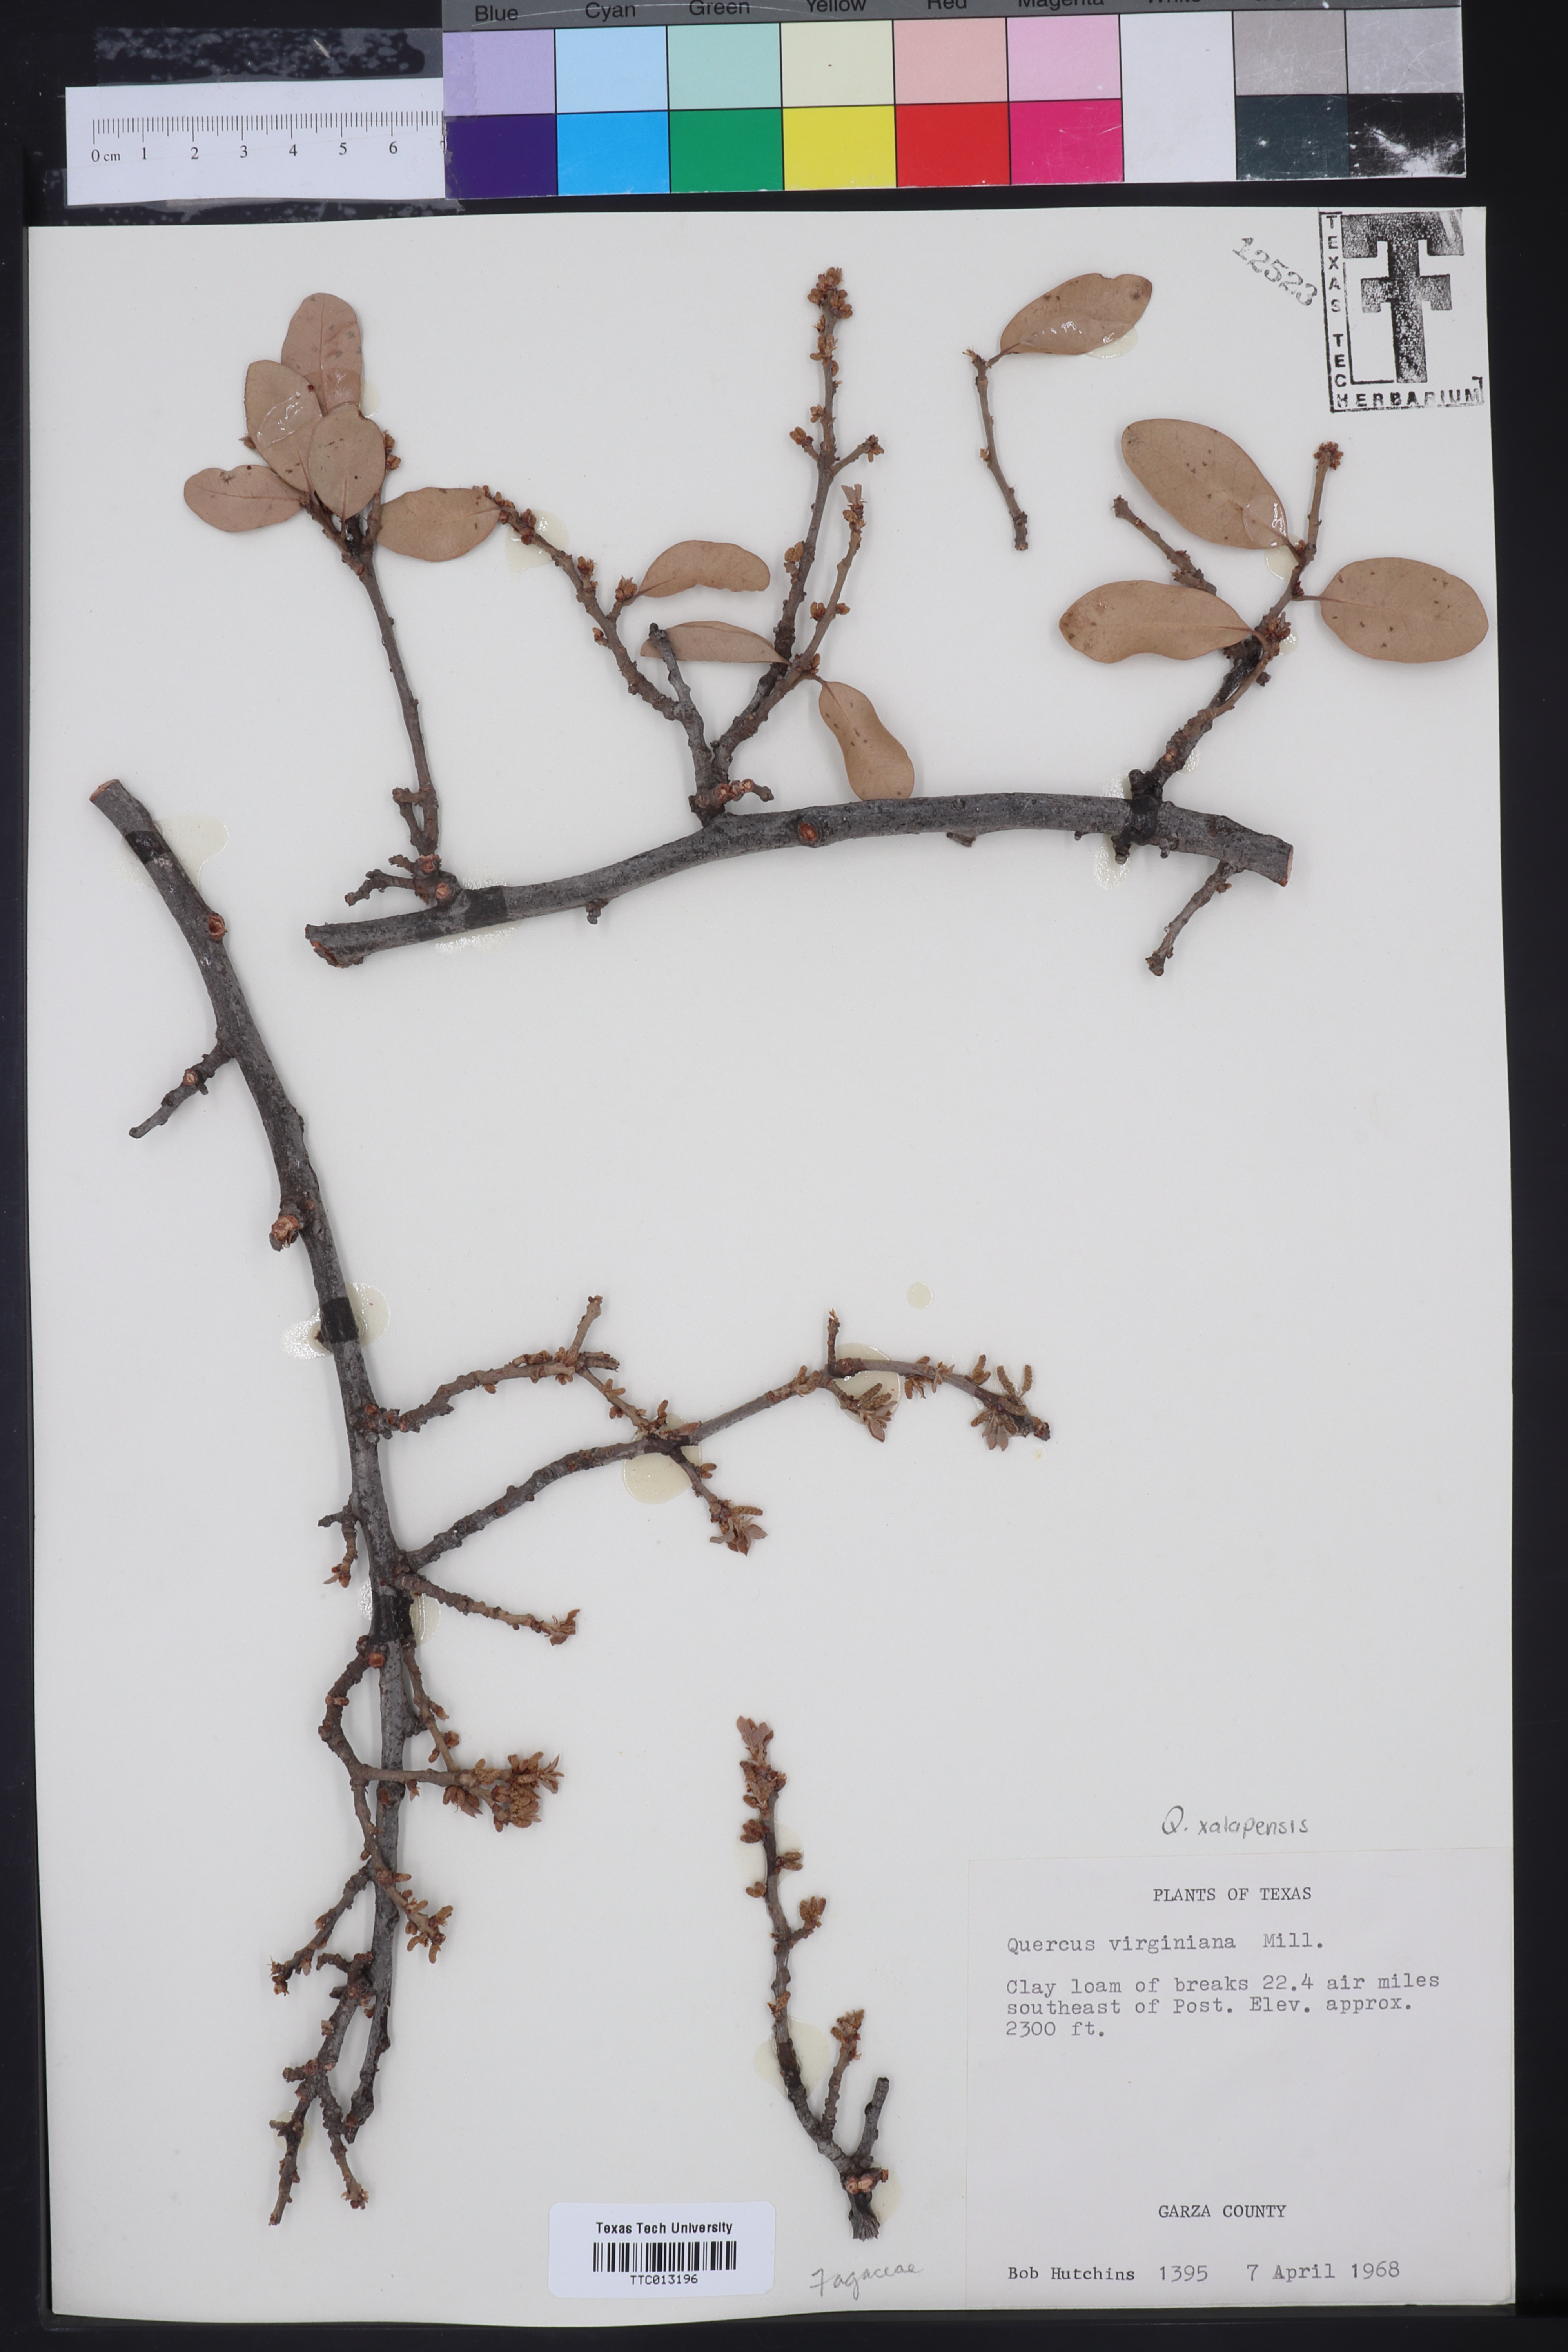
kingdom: Plantae
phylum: Tracheophyta
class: Magnoliopsida
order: Fagales
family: Fagaceae
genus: Quercus
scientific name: Quercus virginiana
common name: Southern live oak
